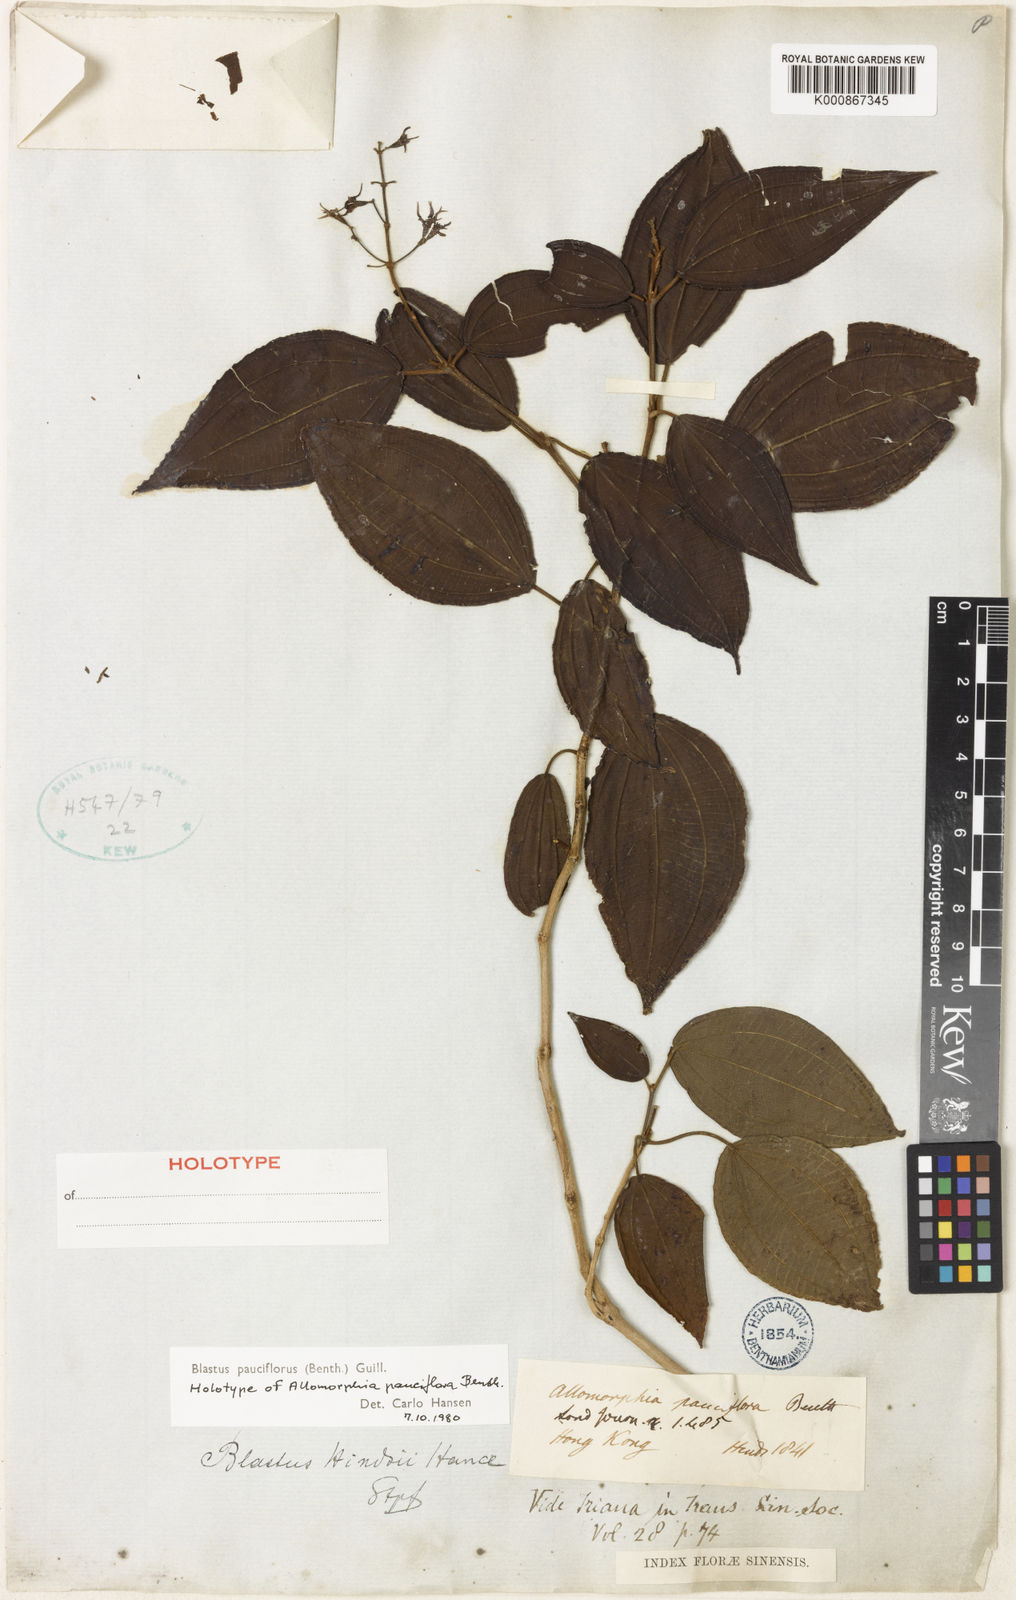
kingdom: Plantae
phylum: Tracheophyta
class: Magnoliopsida
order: Myrtales
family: Melastomataceae
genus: Blastus
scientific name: Blastus pauciflorus
